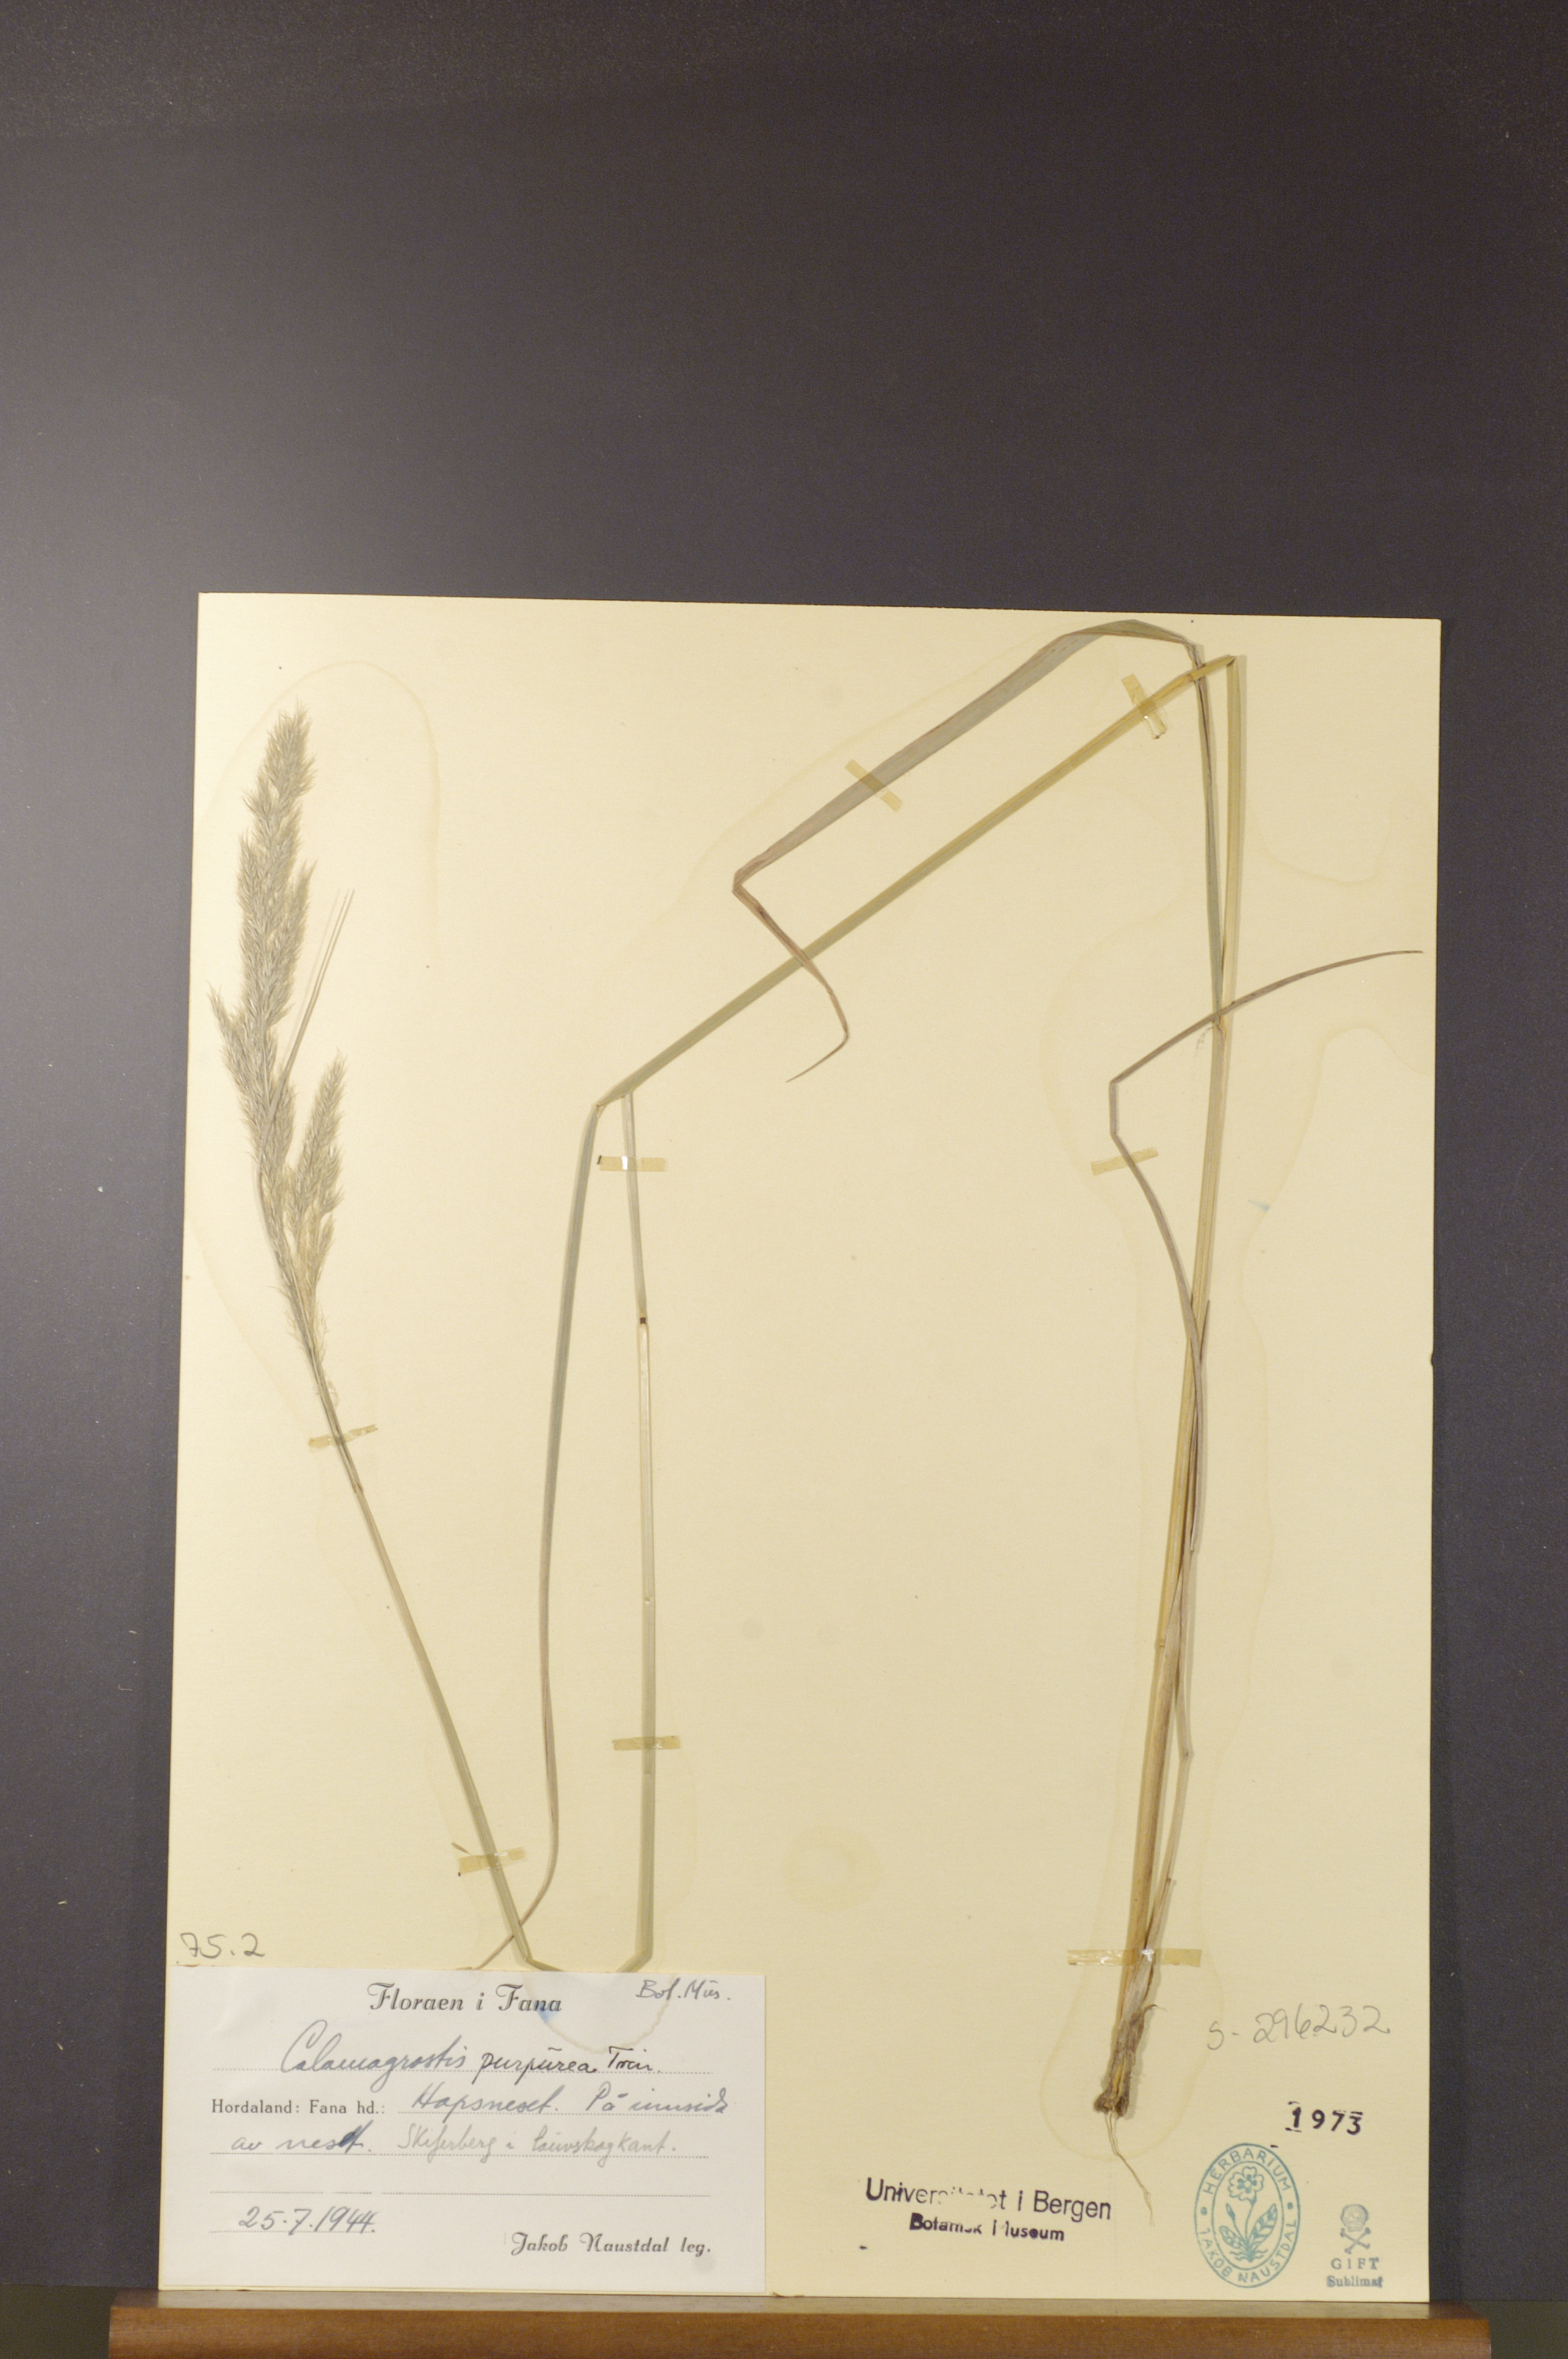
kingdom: Plantae
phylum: Tracheophyta
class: Liliopsida
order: Poales
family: Poaceae
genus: Calamagrostis
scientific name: Calamagrostis purpurea
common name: Scandinavian small-reed
